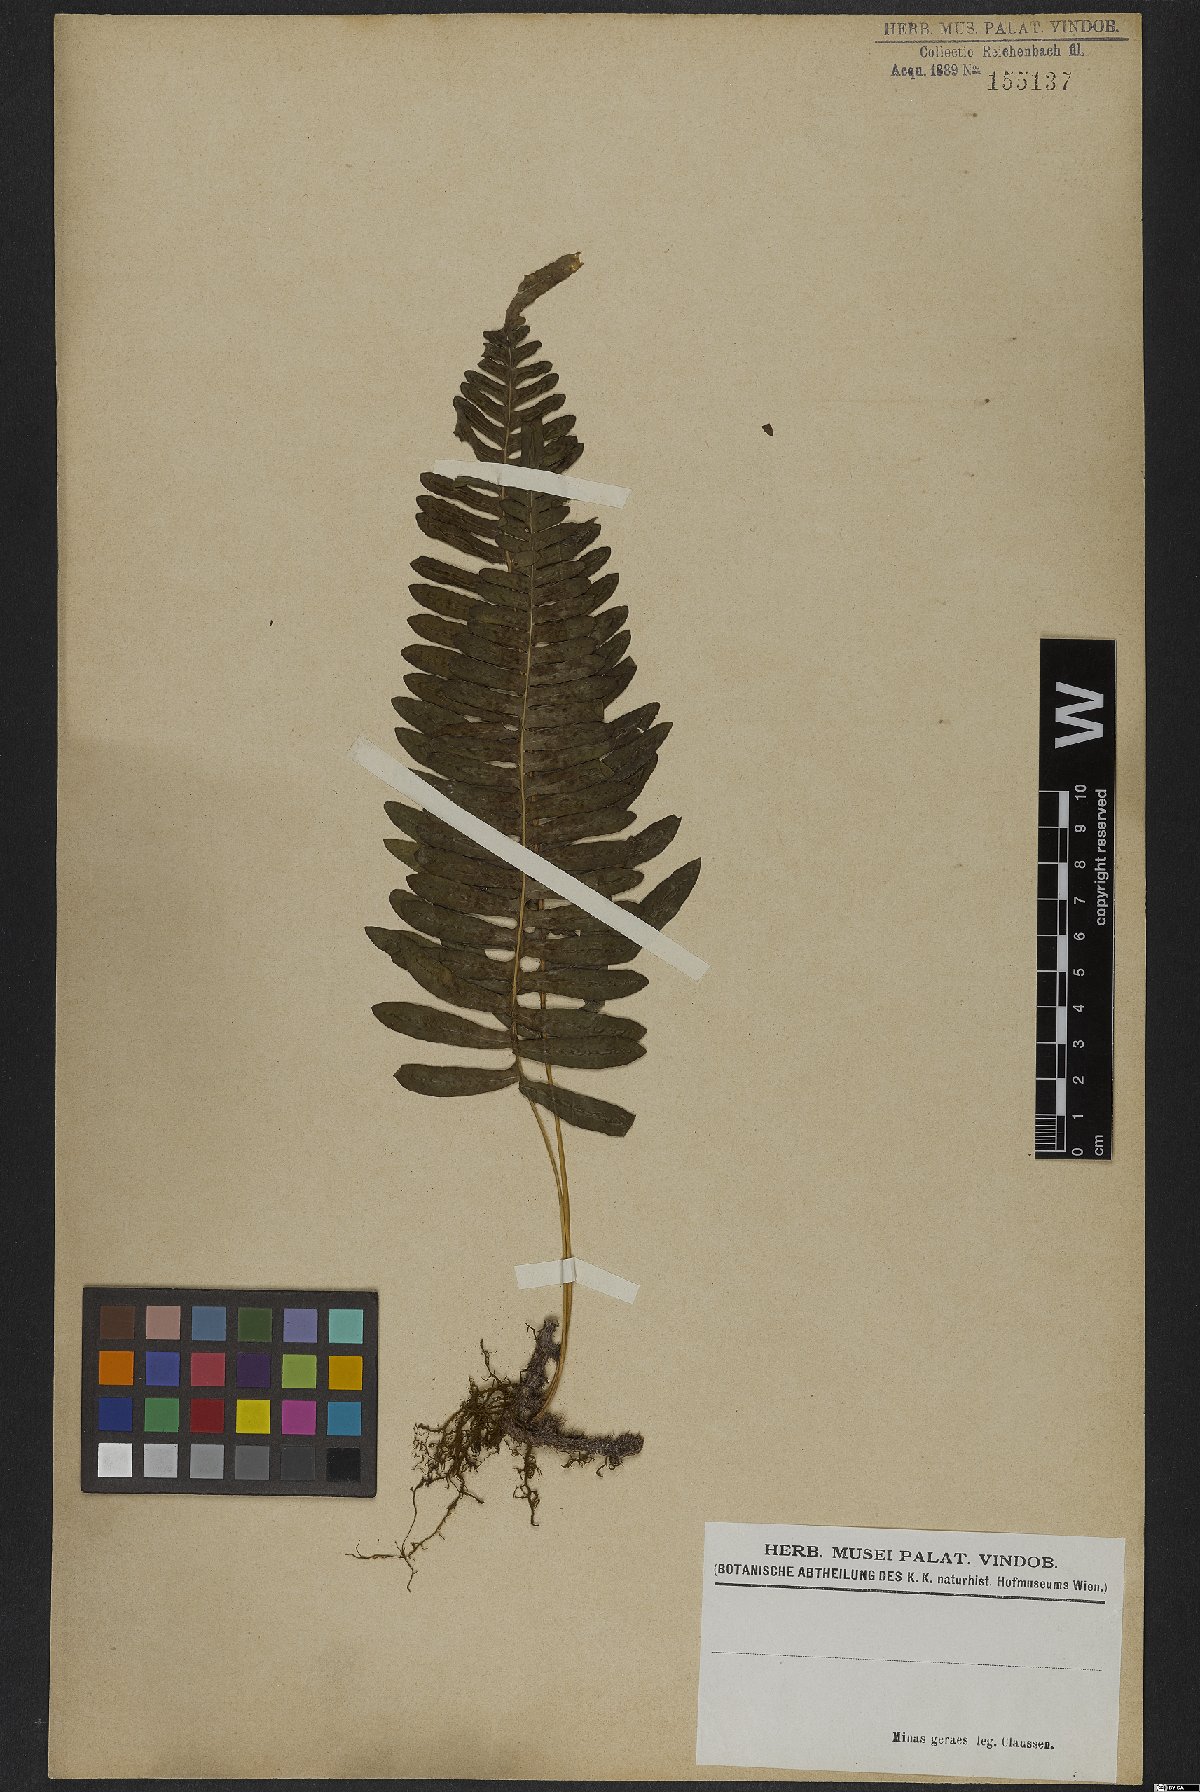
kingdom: Plantae
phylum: Tracheophyta
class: Polypodiopsida
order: Polypodiales
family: Polypodiaceae
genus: Polypodium
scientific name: Polypodium
